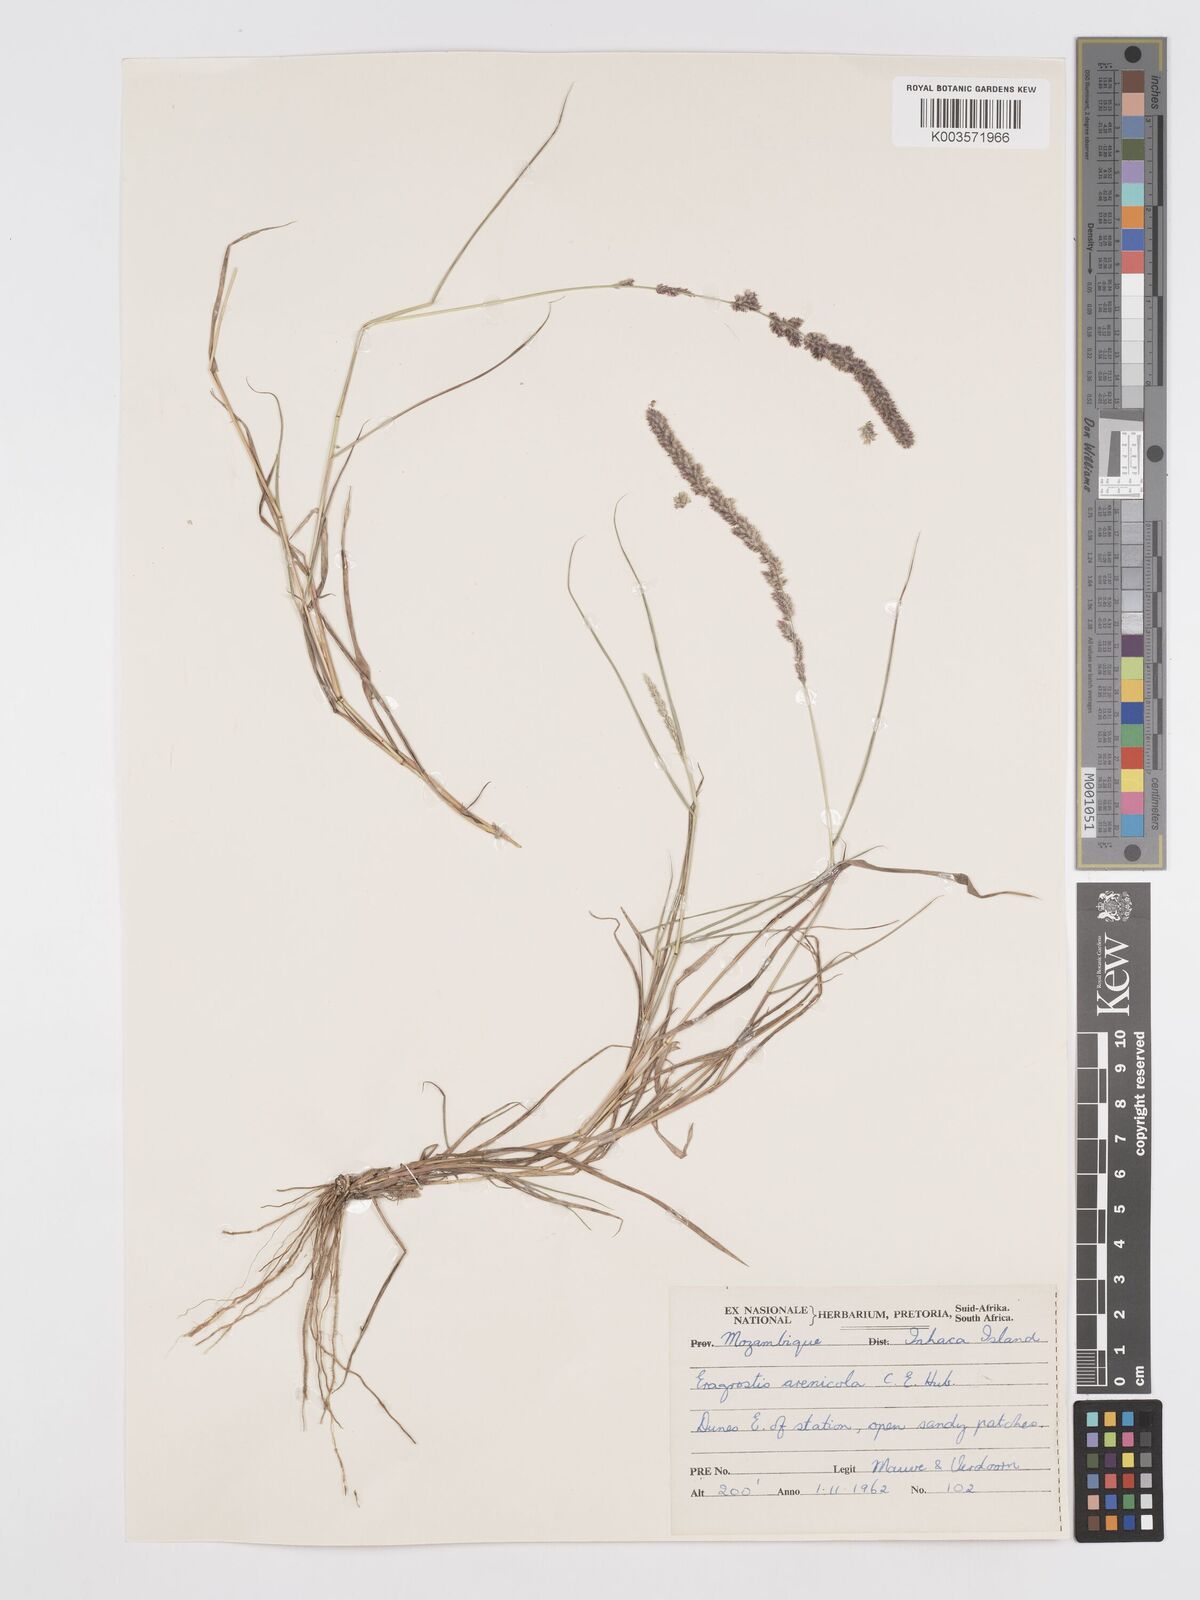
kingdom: Plantae
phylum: Tracheophyta
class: Liliopsida
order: Poales
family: Poaceae
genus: Eragrostis
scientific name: Eragrostis ciliaris
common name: Gophertail lovegrass
